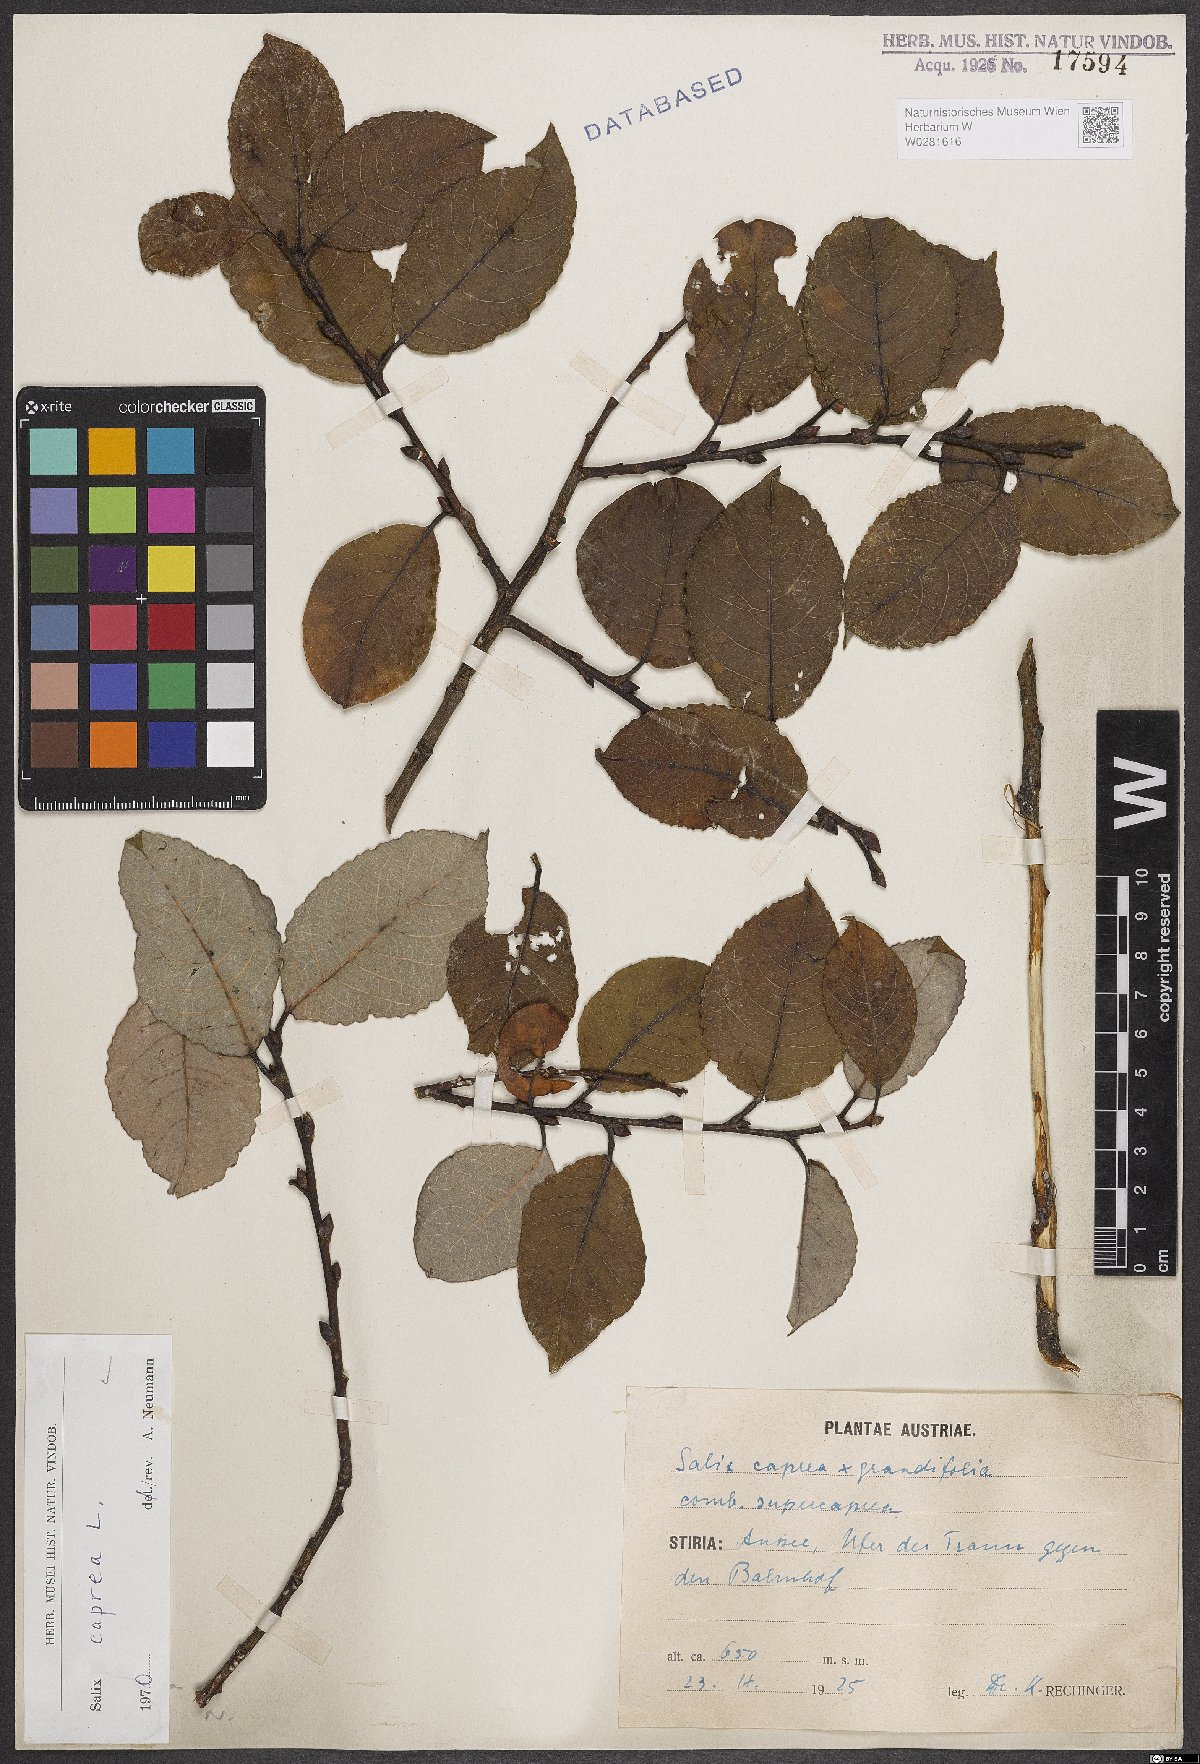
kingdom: Plantae
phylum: Tracheophyta
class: Magnoliopsida
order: Malpighiales
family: Salicaceae
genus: Salix
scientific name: Salix caprea
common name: Goat willow
